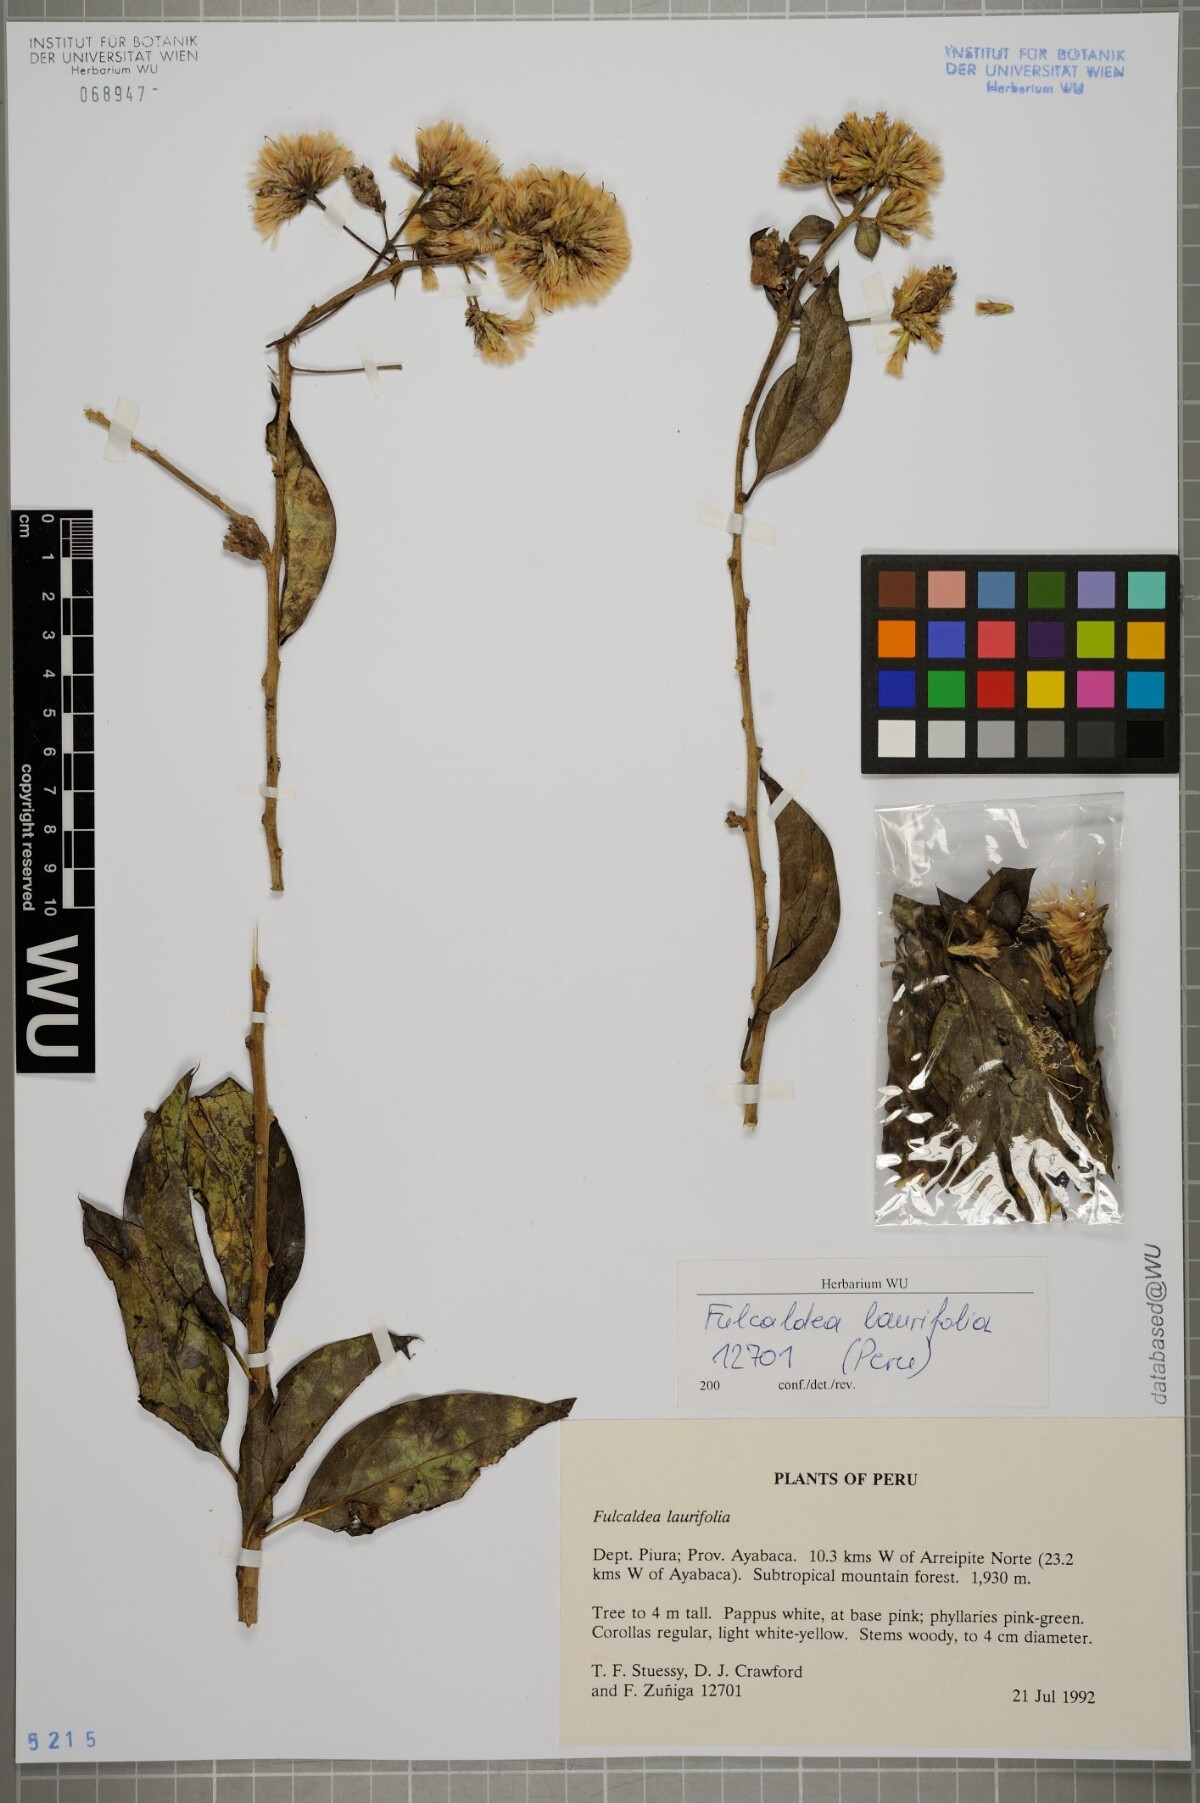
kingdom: Plantae
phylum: Tracheophyta
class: Magnoliopsida
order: Asterales
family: Asteraceae
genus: Fulcaldea
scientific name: Fulcaldea laurifolia
